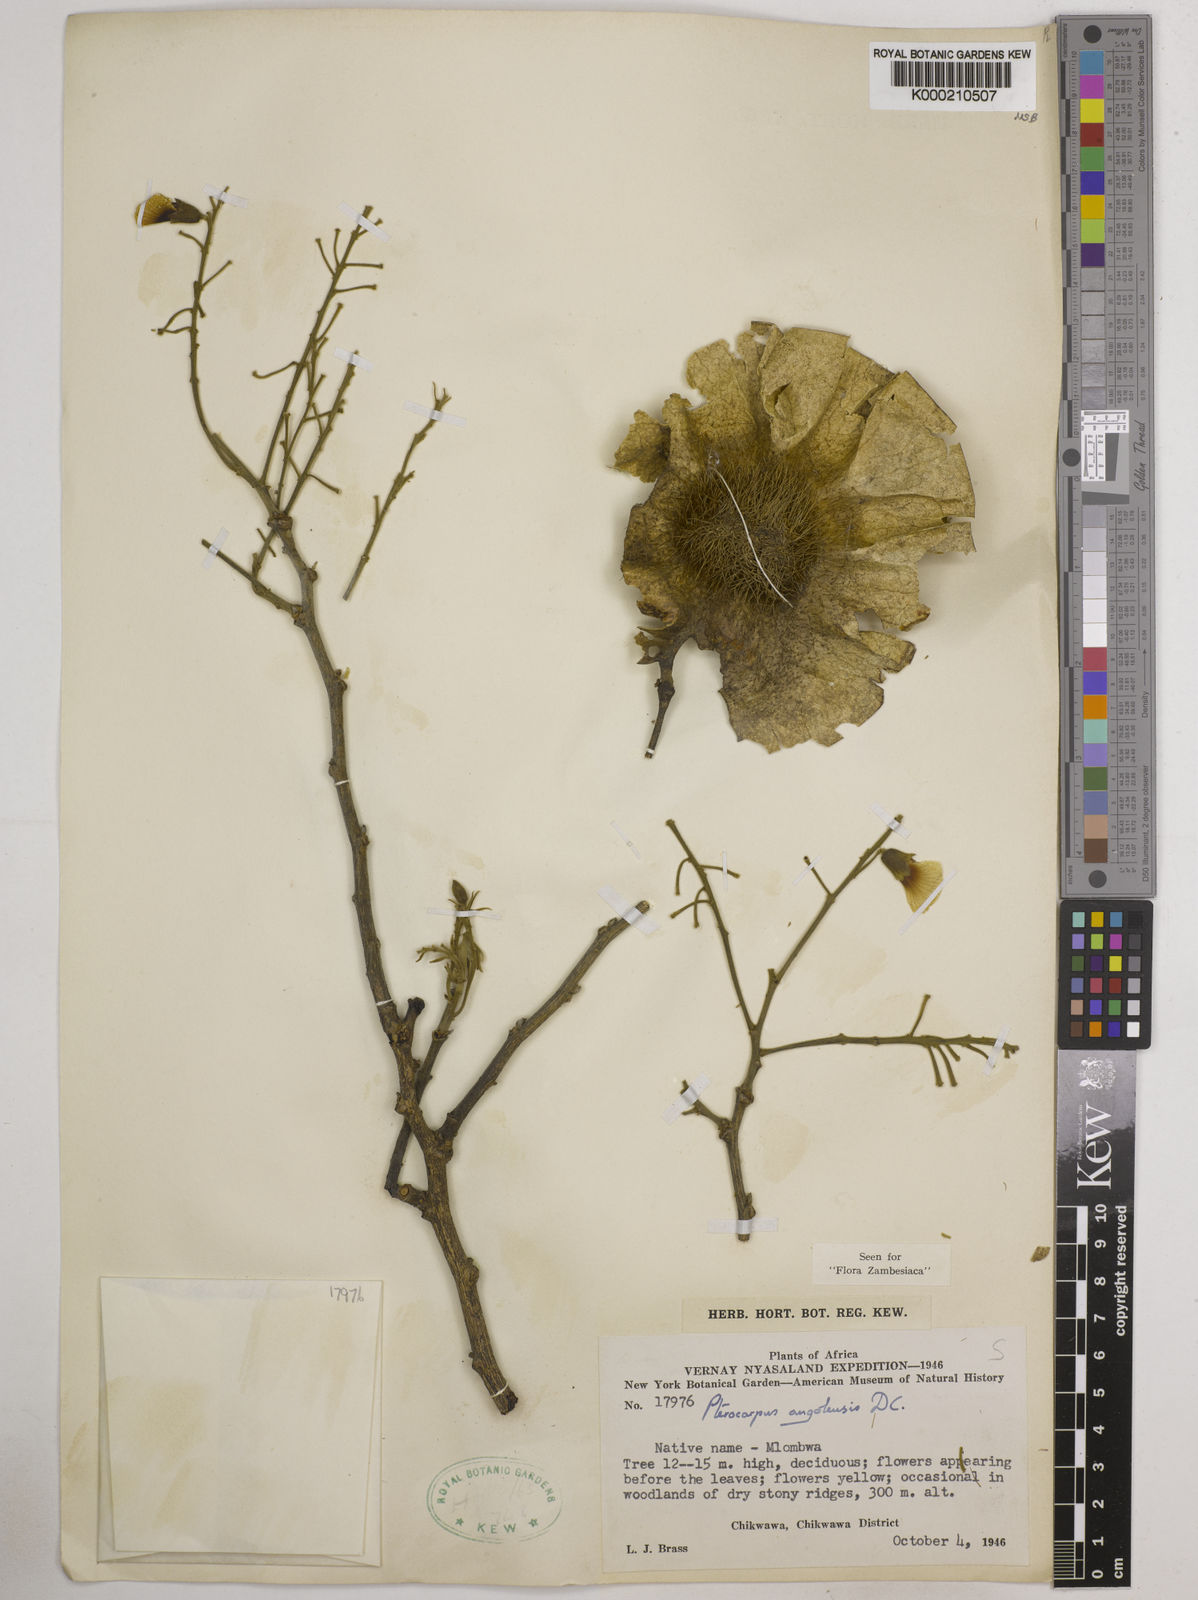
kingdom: Plantae
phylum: Tracheophyta
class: Magnoliopsida
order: Fabales
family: Fabaceae
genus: Pterocarpus
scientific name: Pterocarpus angolensis
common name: Bloodwood tree
